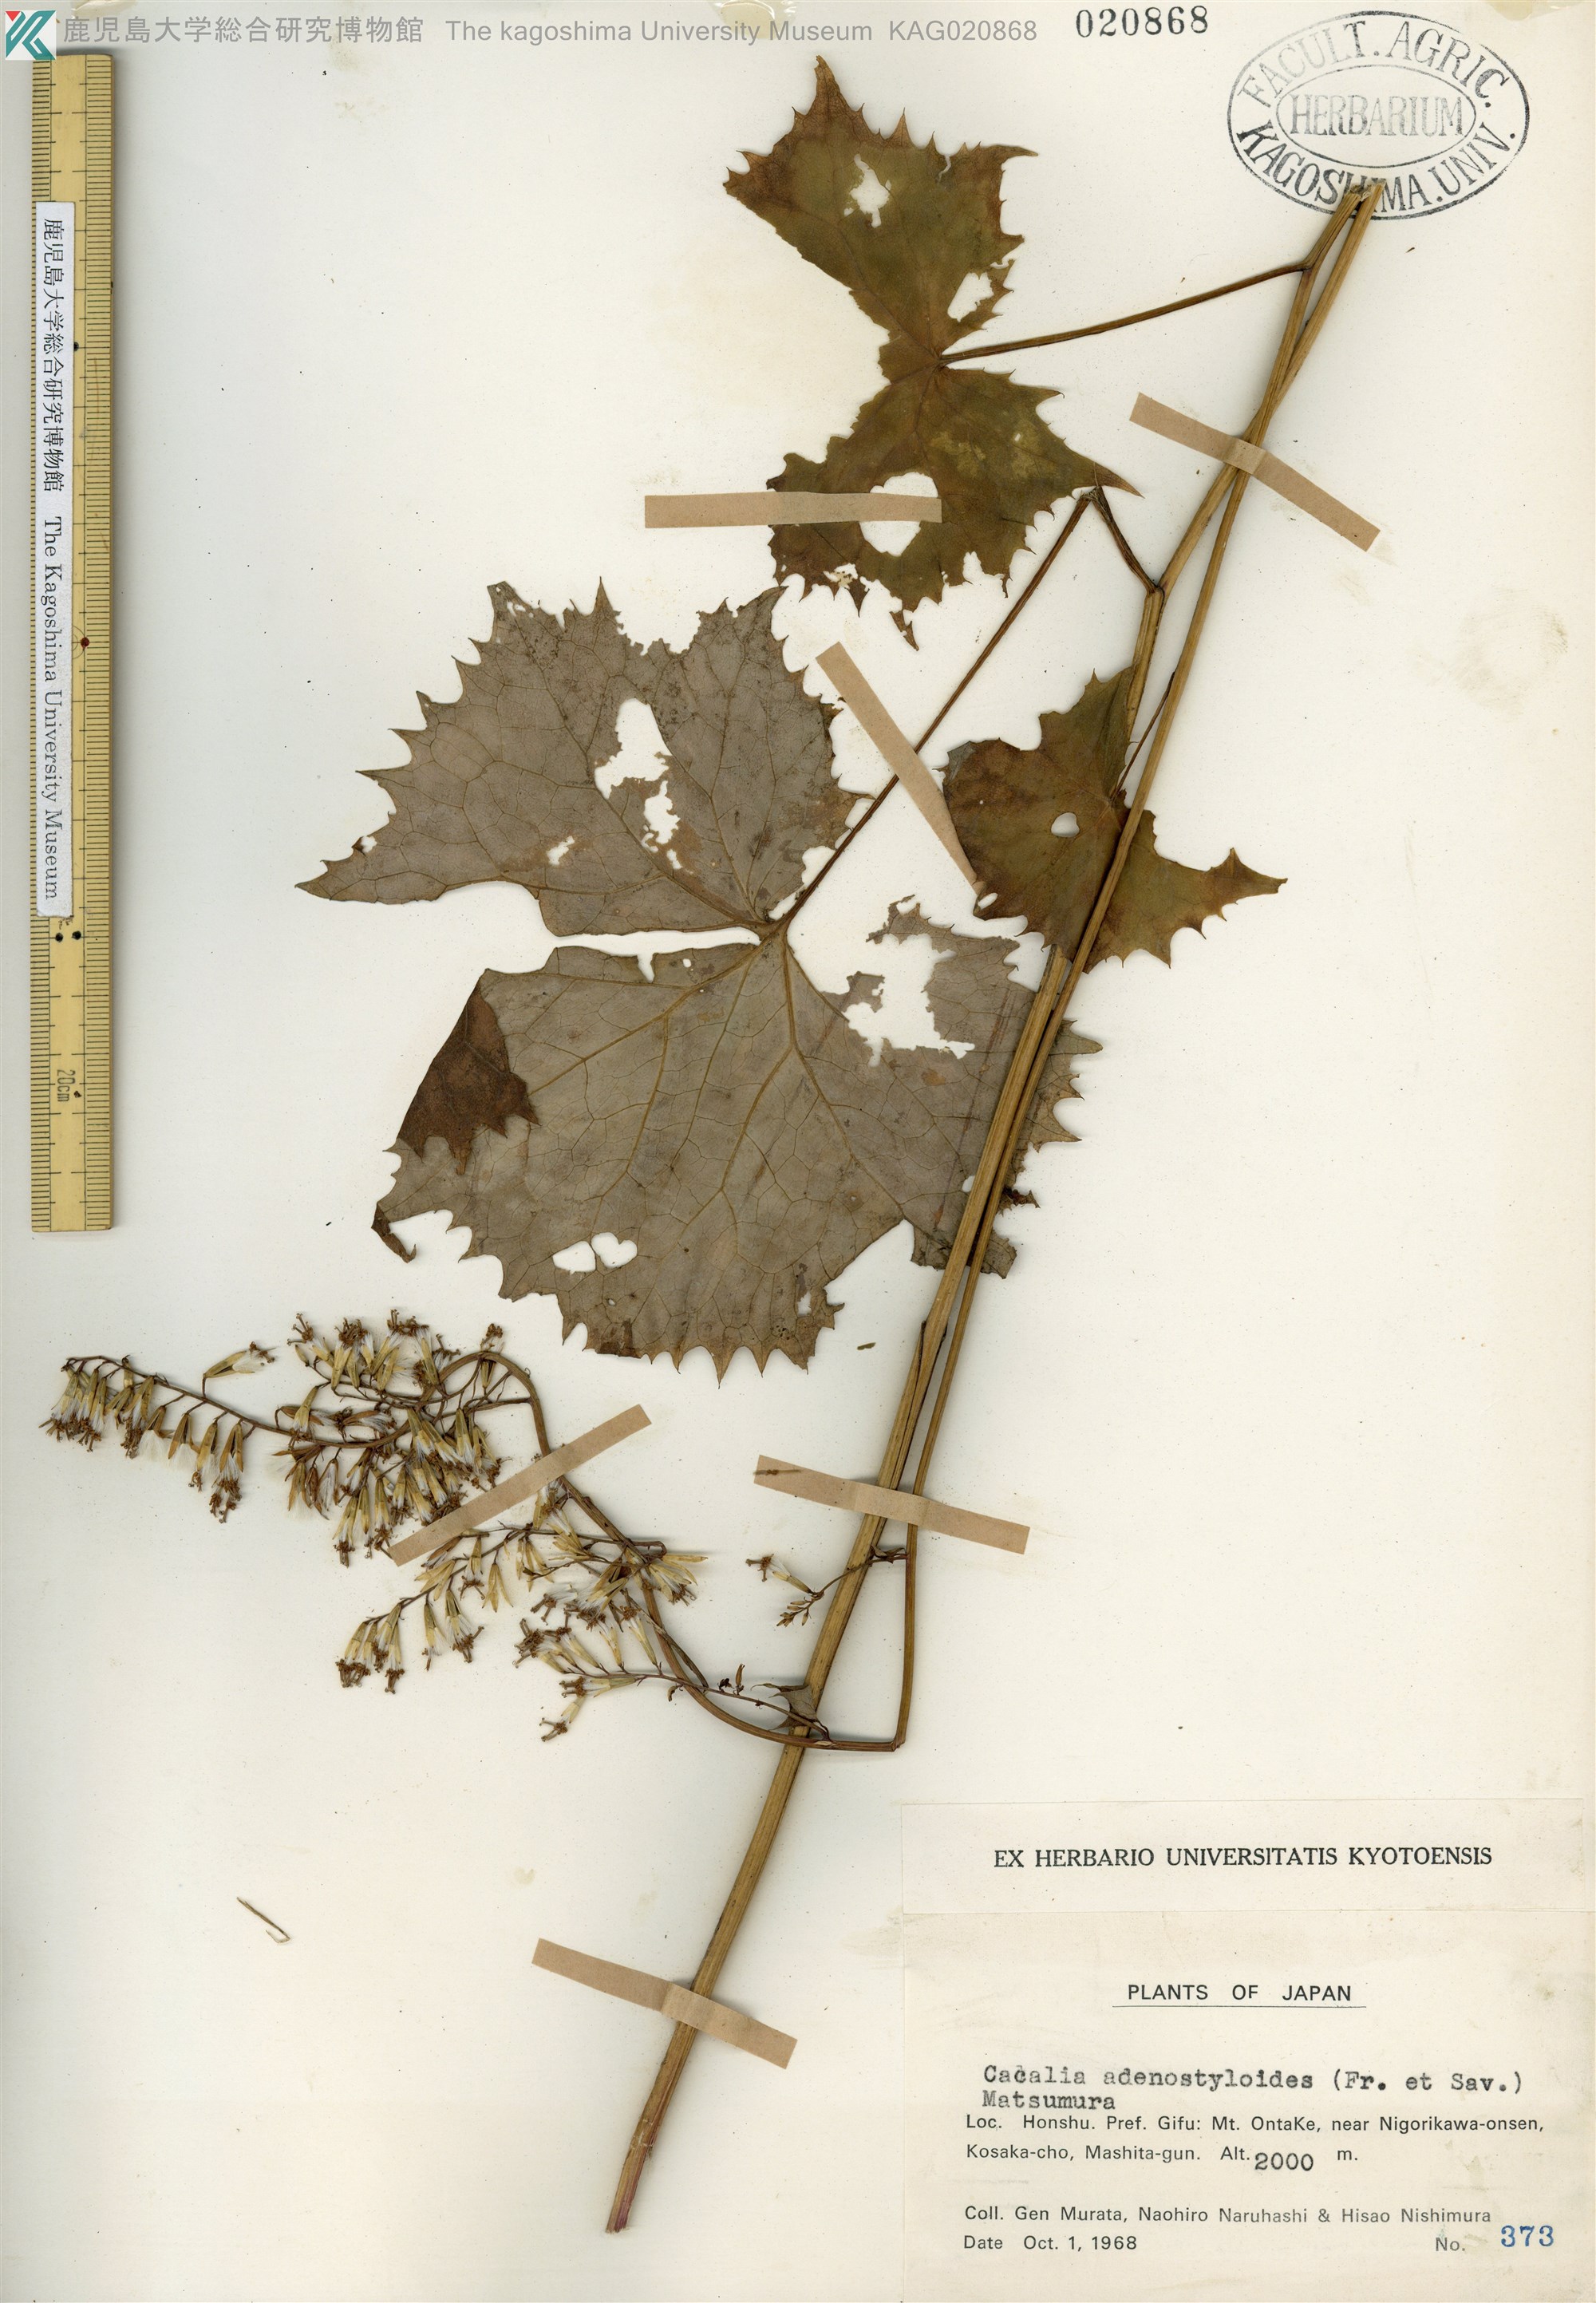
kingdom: Plantae
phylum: Tracheophyta
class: Magnoliopsida
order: Asterales
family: Asteraceae
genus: Parasenecio
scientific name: Parasenecio farfarifolius
